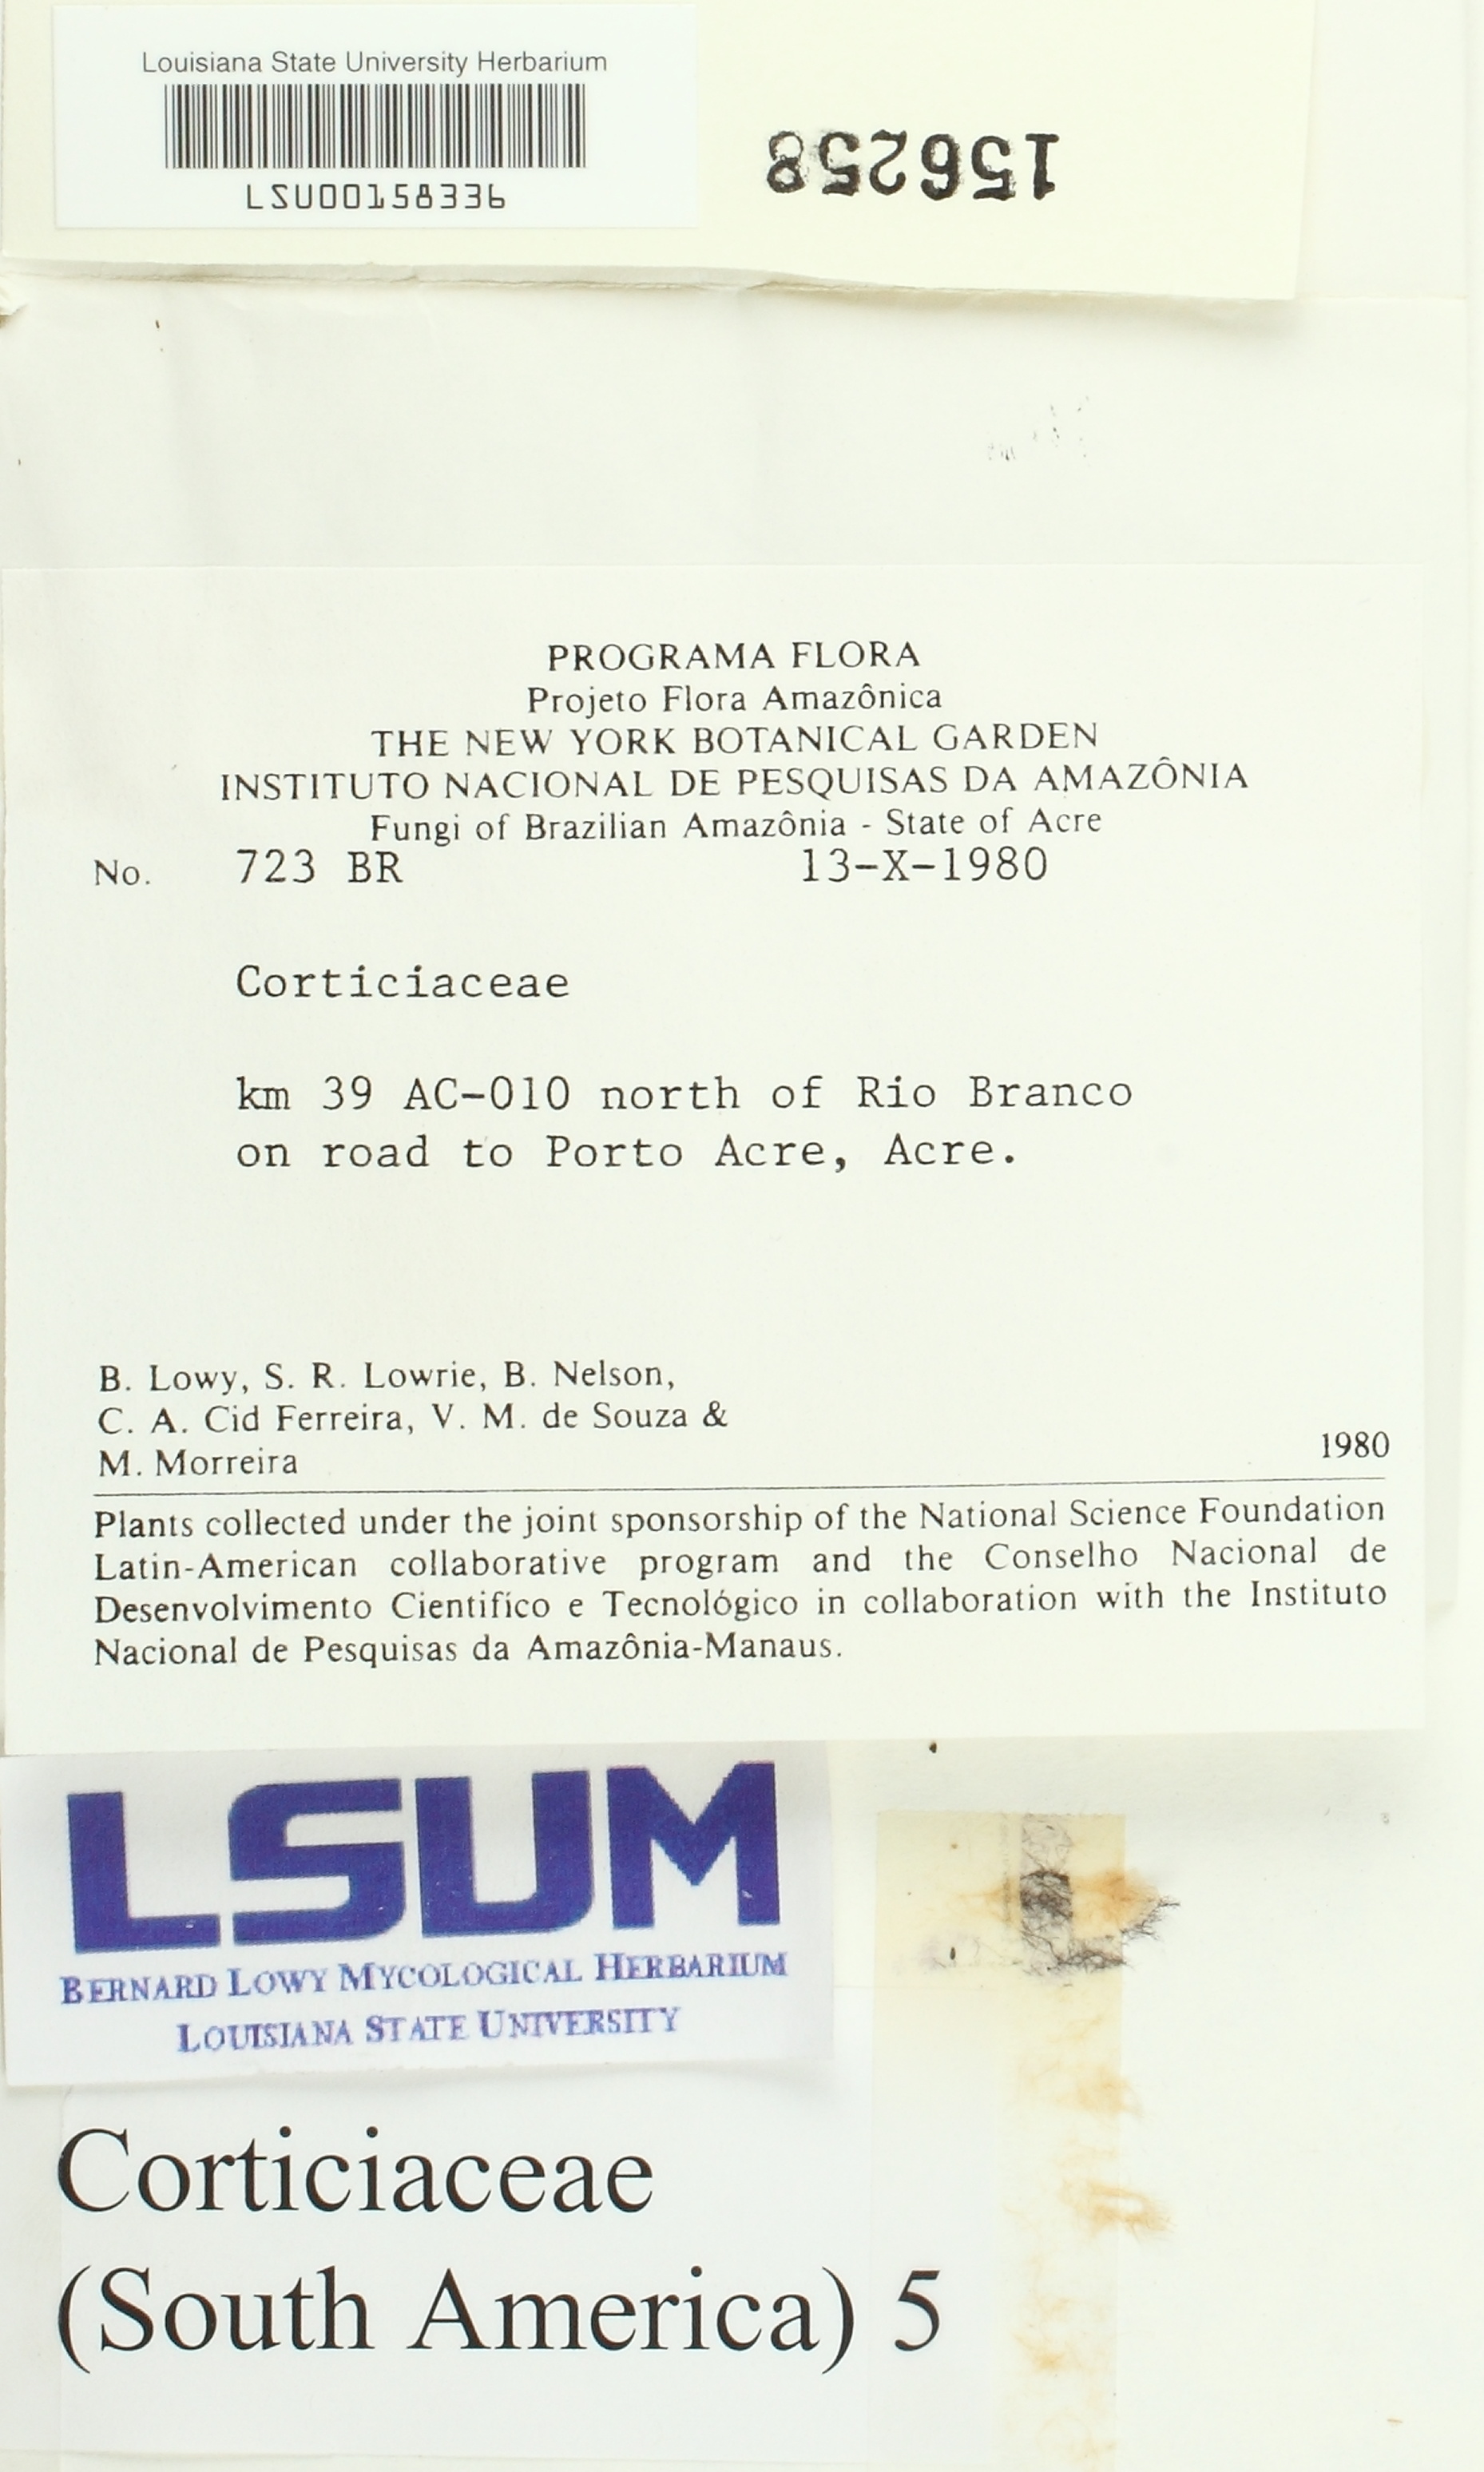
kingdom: Fungi
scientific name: Fungi
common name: Fungi
